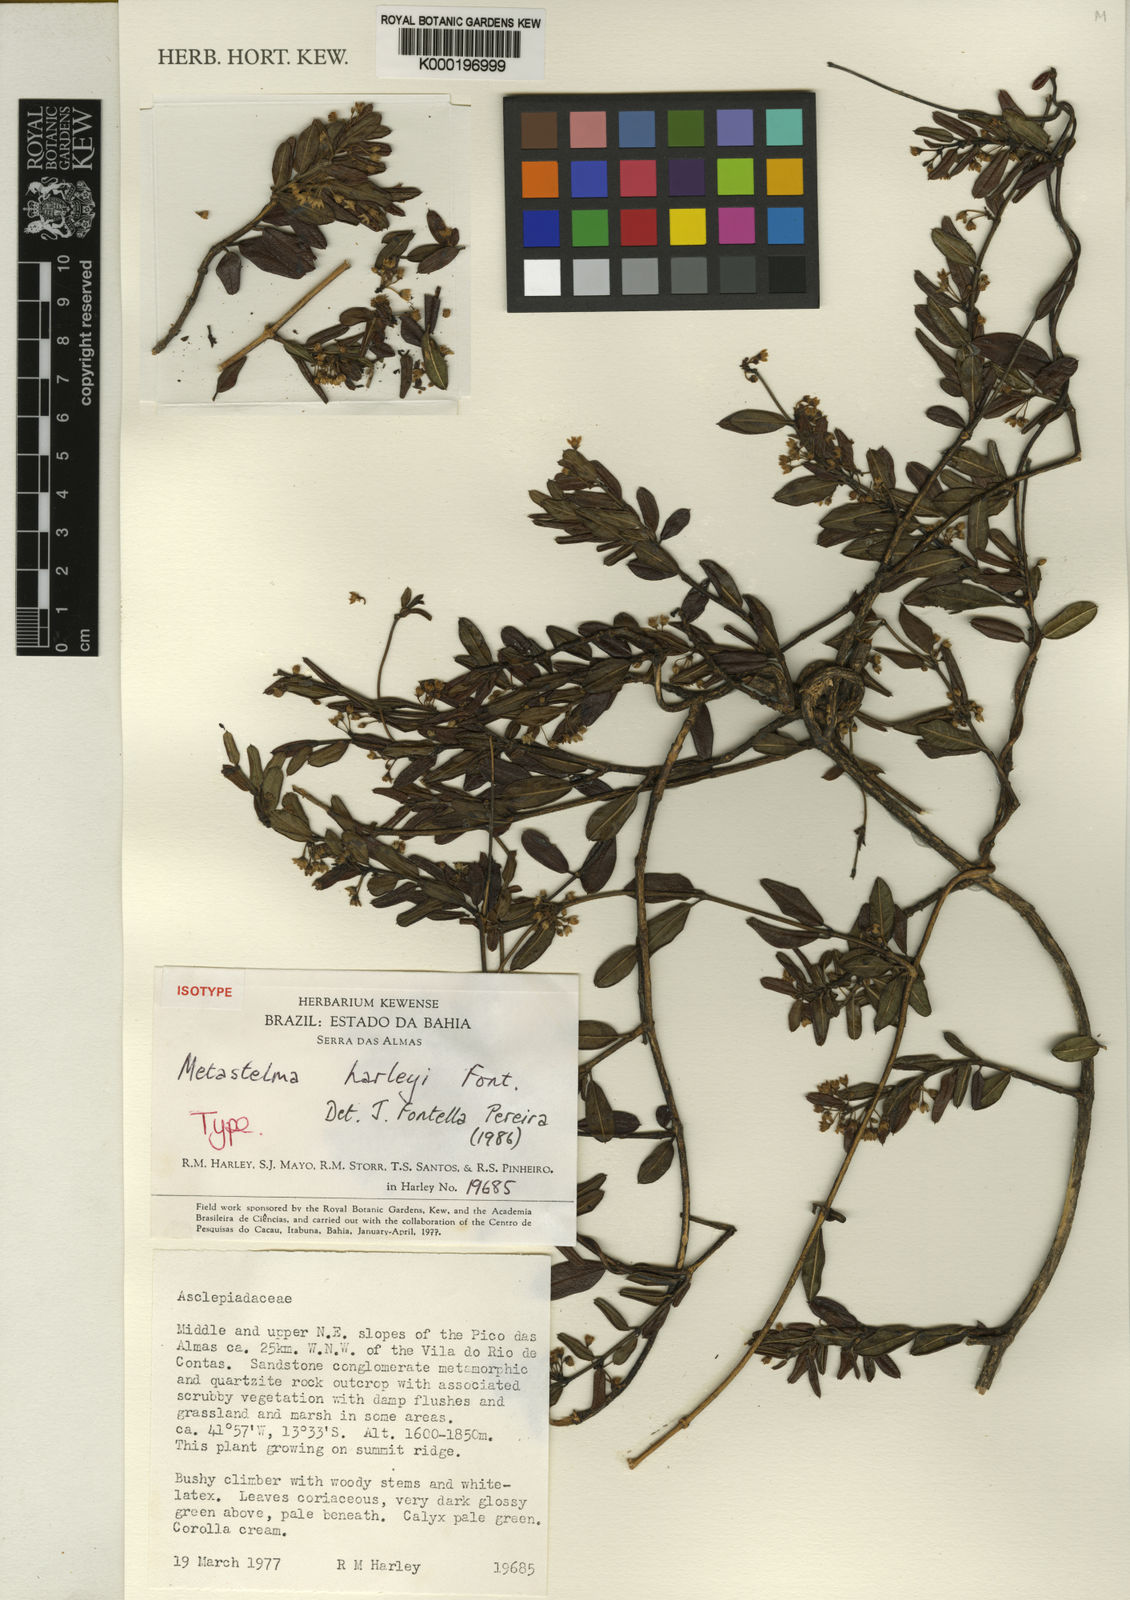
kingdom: Plantae
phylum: Tracheophyta
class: Magnoliopsida
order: Gentianales
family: Apocynaceae
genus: Metastelma
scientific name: Metastelma harleyi
